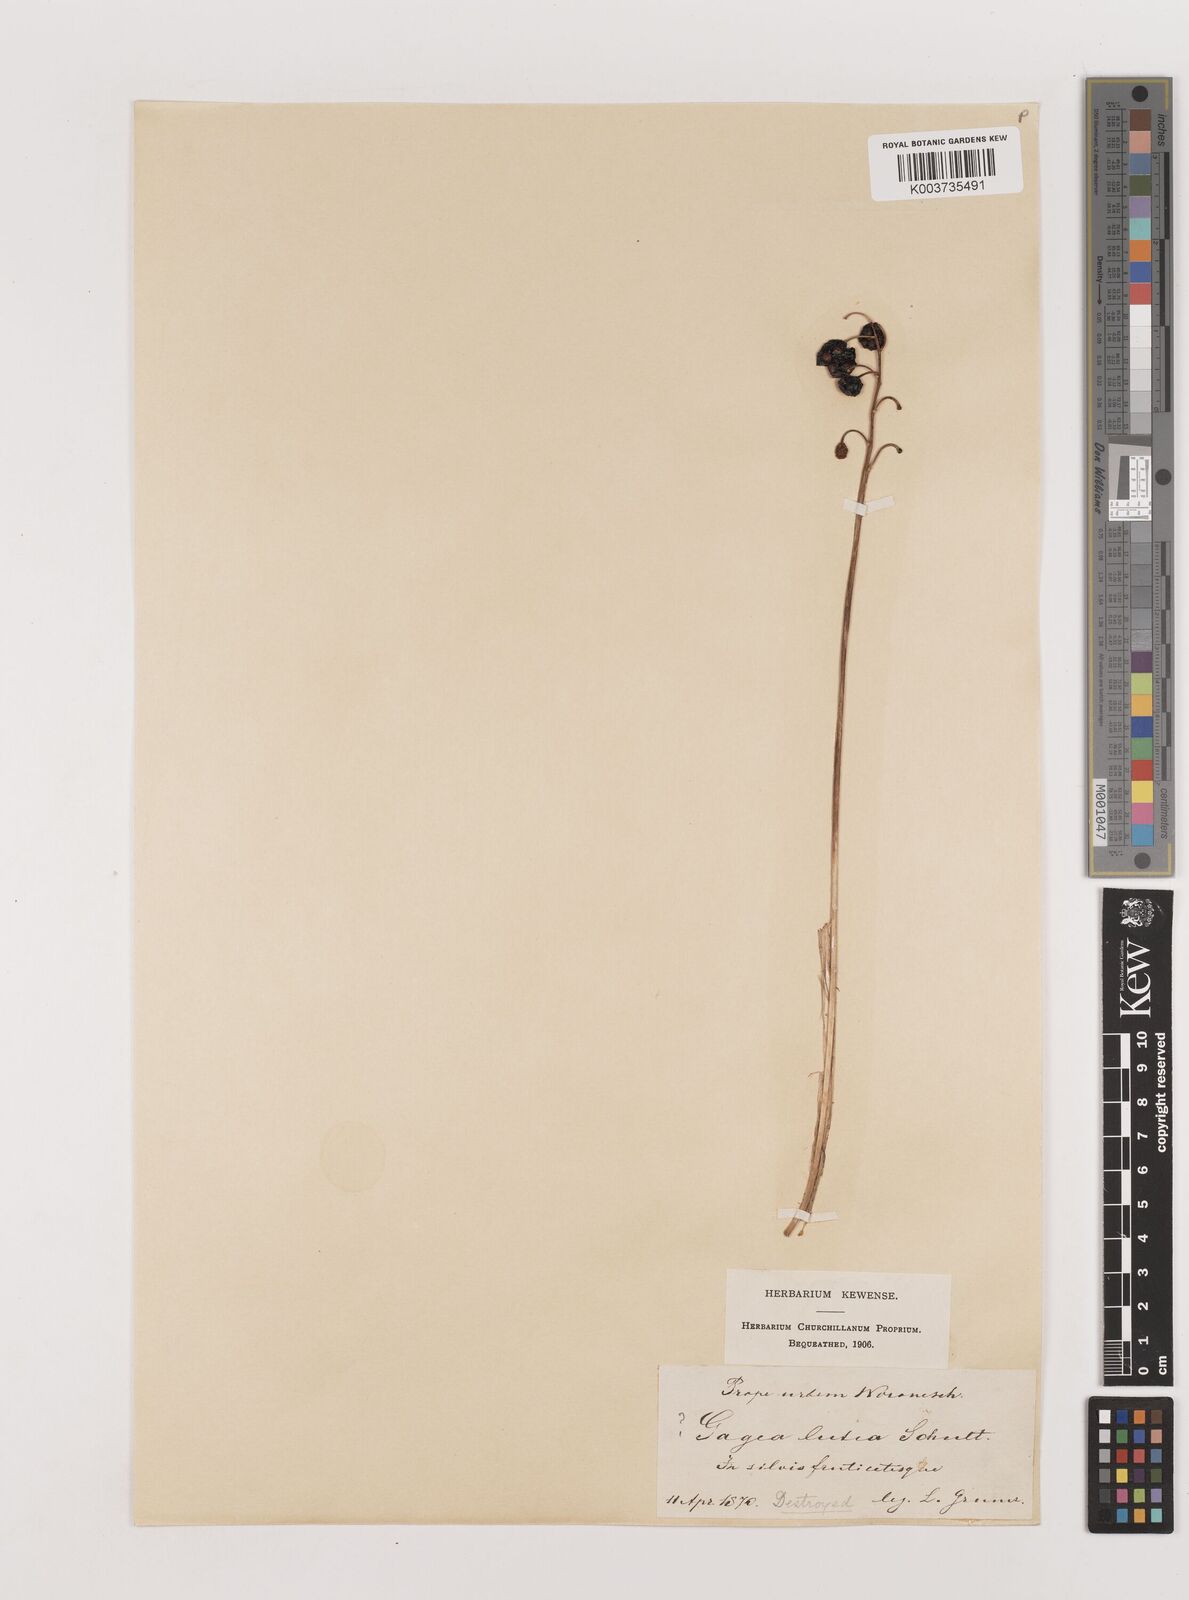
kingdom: Plantae
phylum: Tracheophyta
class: Liliopsida
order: Asparagales
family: Asparagaceae
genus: Convallaria
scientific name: Convallaria majalis
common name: Lily-of-the-valley
